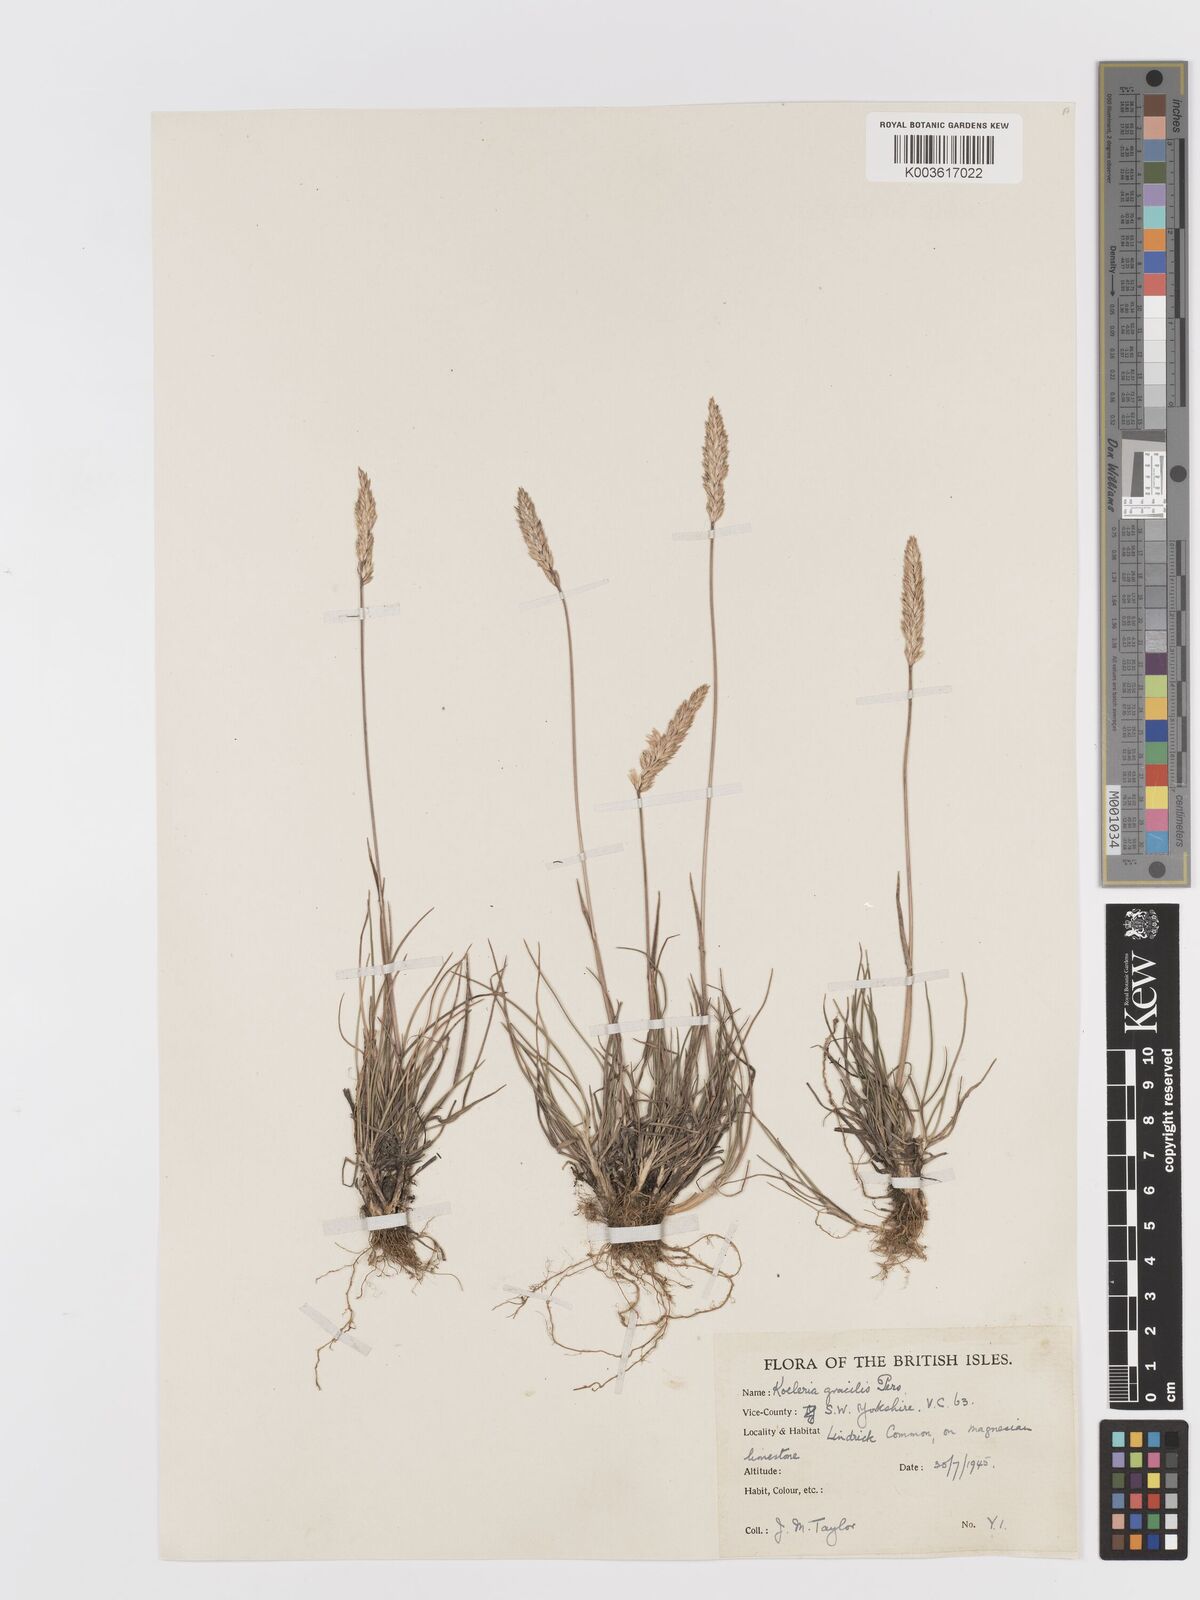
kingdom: Plantae
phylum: Tracheophyta
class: Liliopsida
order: Poales
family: Poaceae
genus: Koeleria
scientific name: Koeleria macrantha
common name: Crested hair-grass
